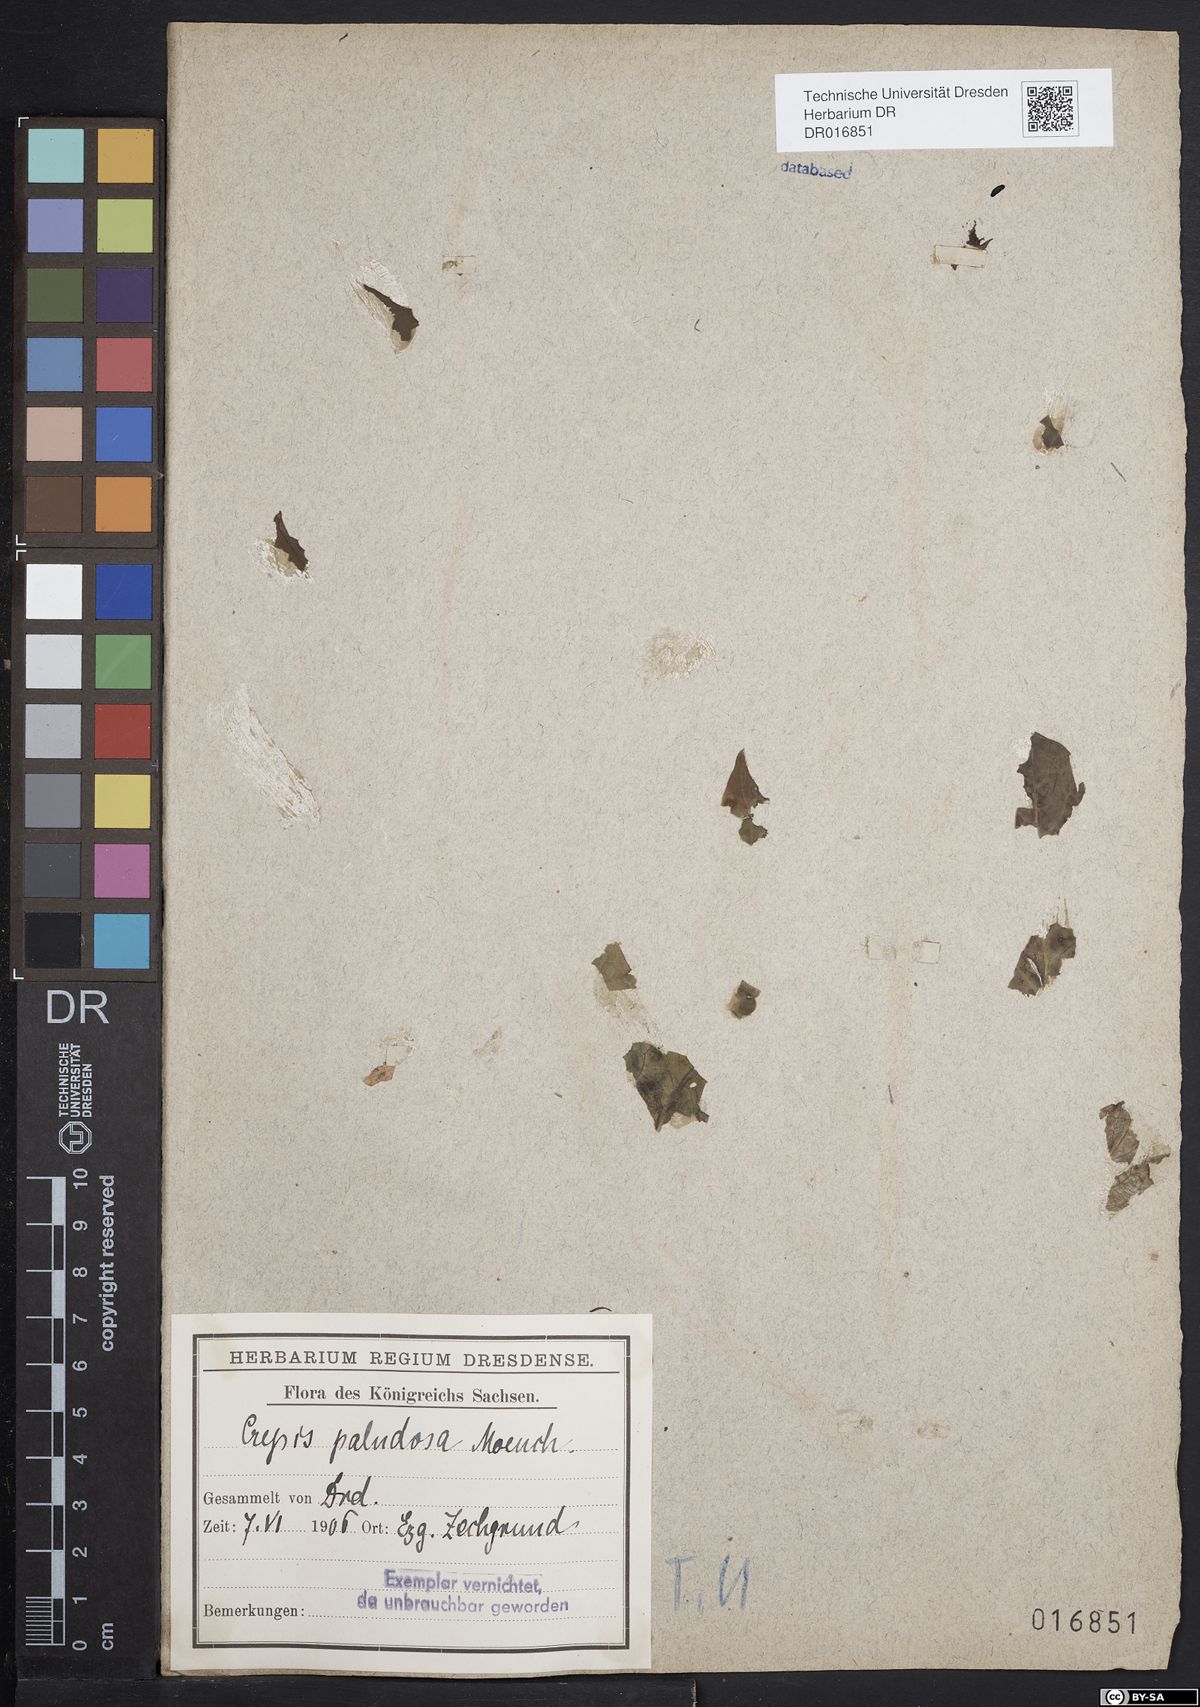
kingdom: Plantae
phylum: Tracheophyta
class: Magnoliopsida
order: Asterales
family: Asteraceae
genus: Crepis
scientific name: Crepis paludosa
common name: Marsh hawk's-beard
